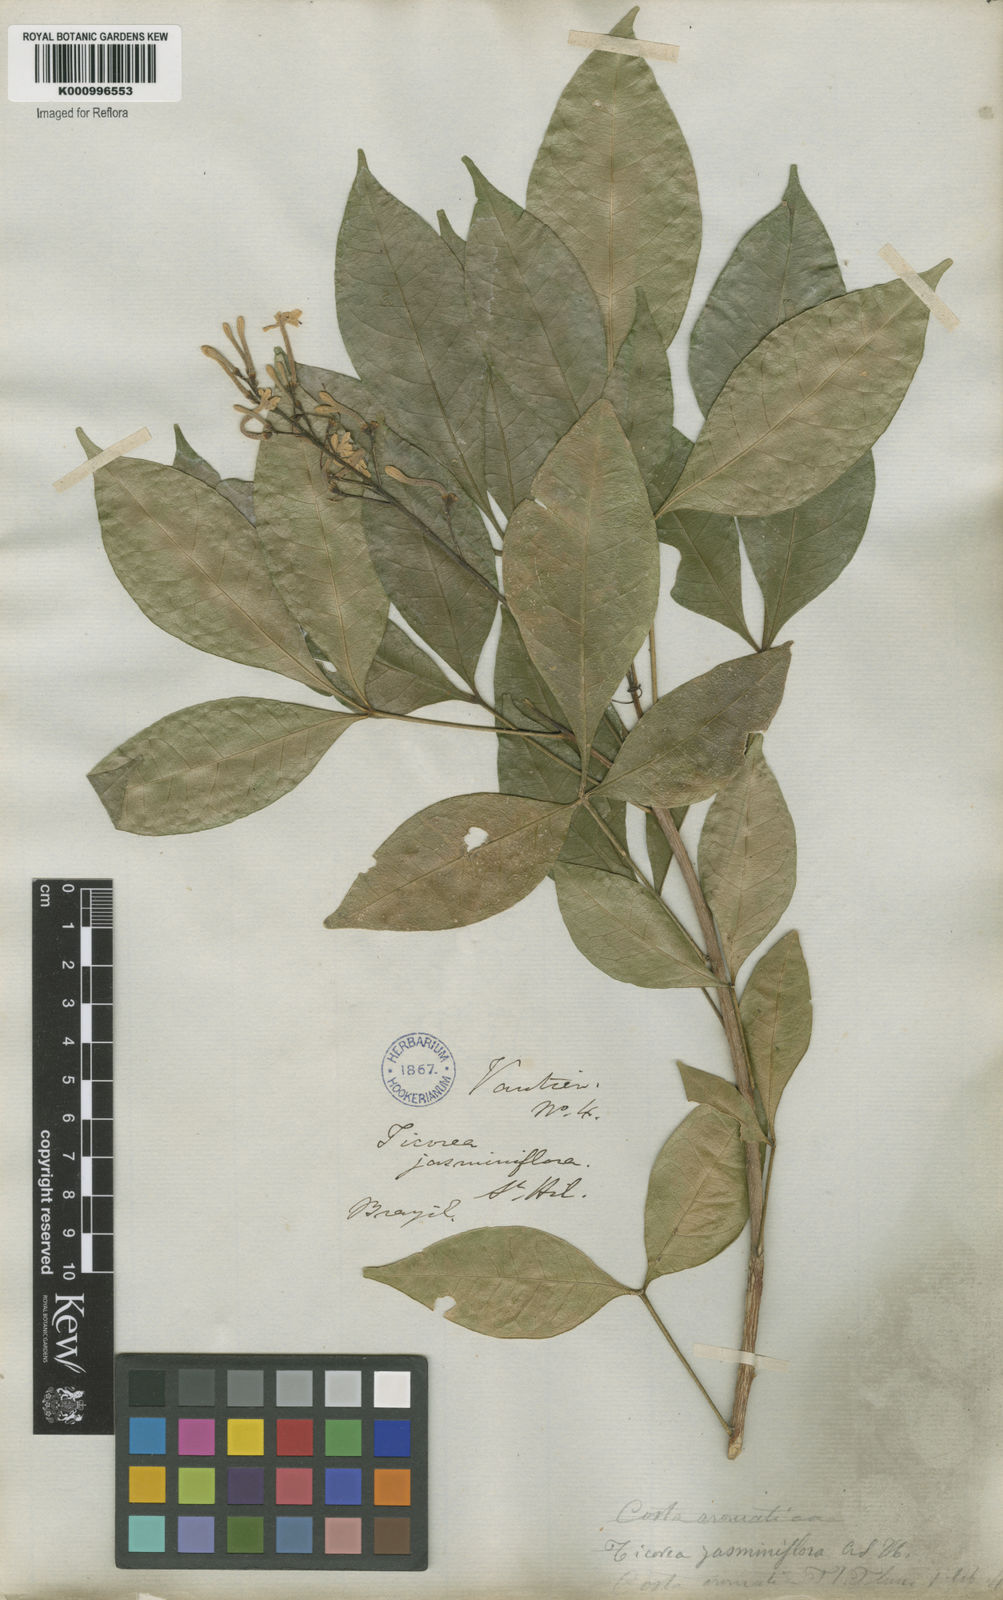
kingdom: Plantae
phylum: Tracheophyta
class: Magnoliopsida
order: Sapindales
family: Rutaceae
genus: Galipea
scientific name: Galipea
